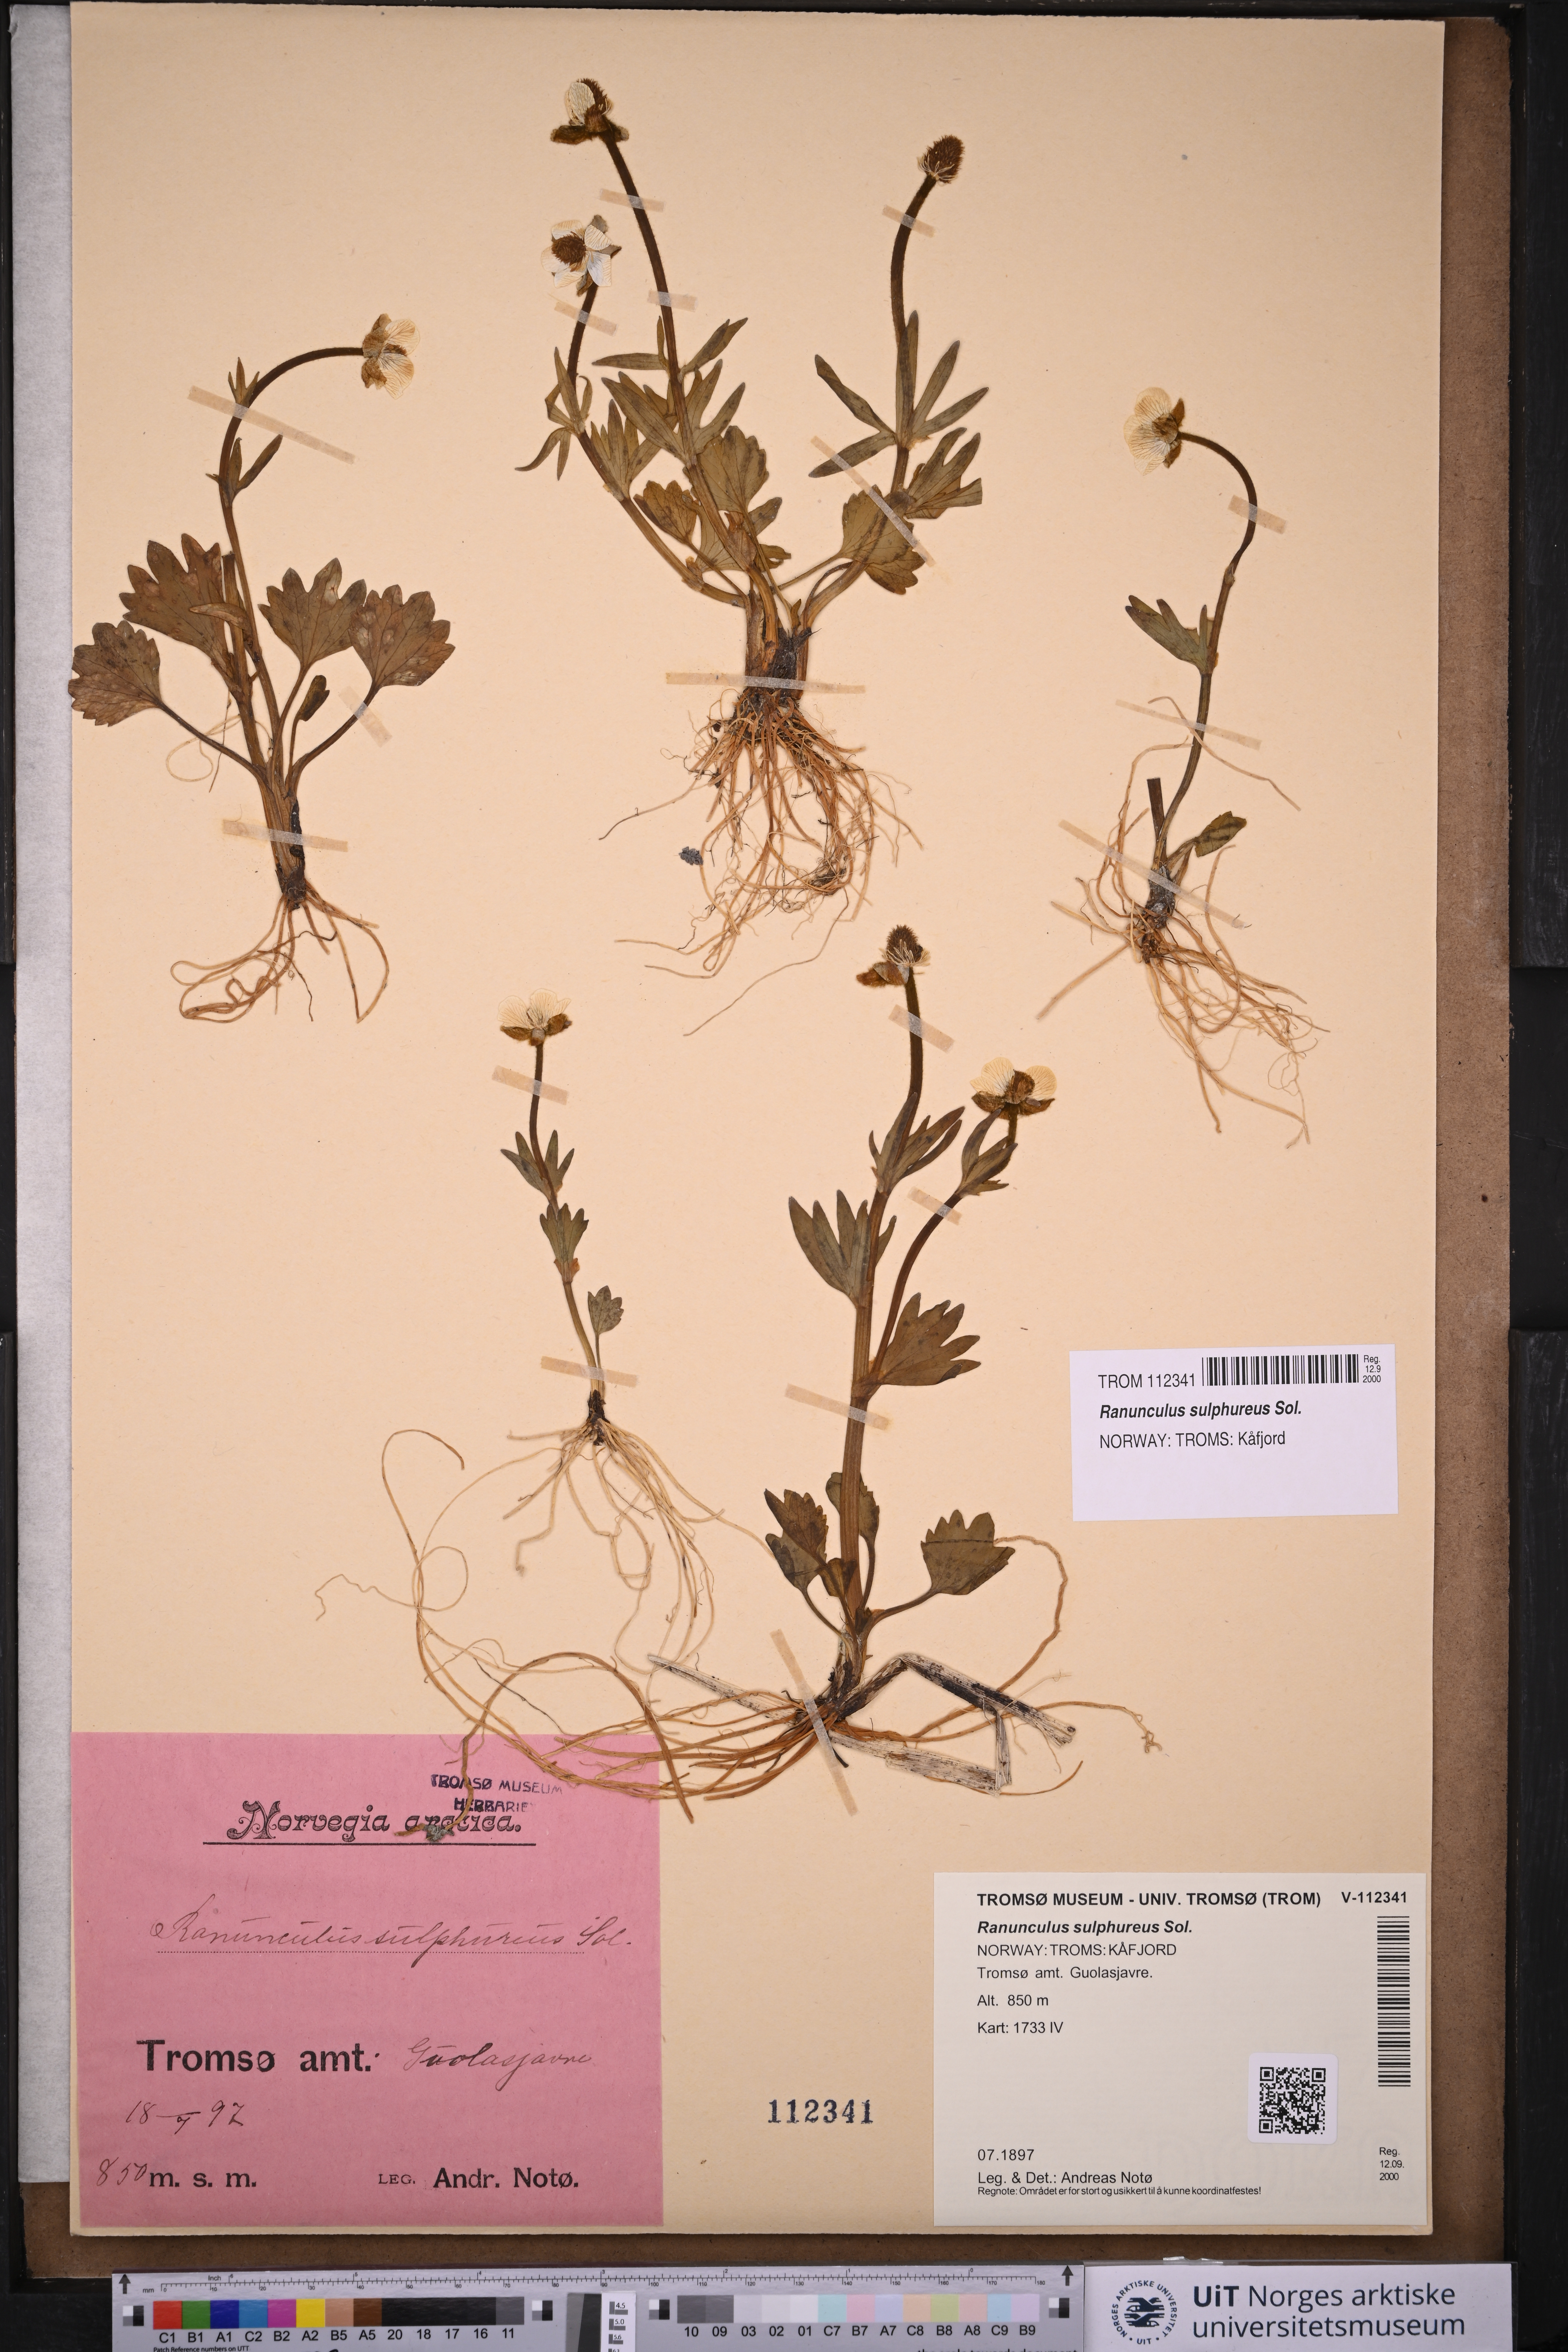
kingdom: Plantae
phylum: Tracheophyta
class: Magnoliopsida
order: Ranunculales
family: Ranunculaceae
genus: Ranunculus
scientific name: Ranunculus sulphureus
